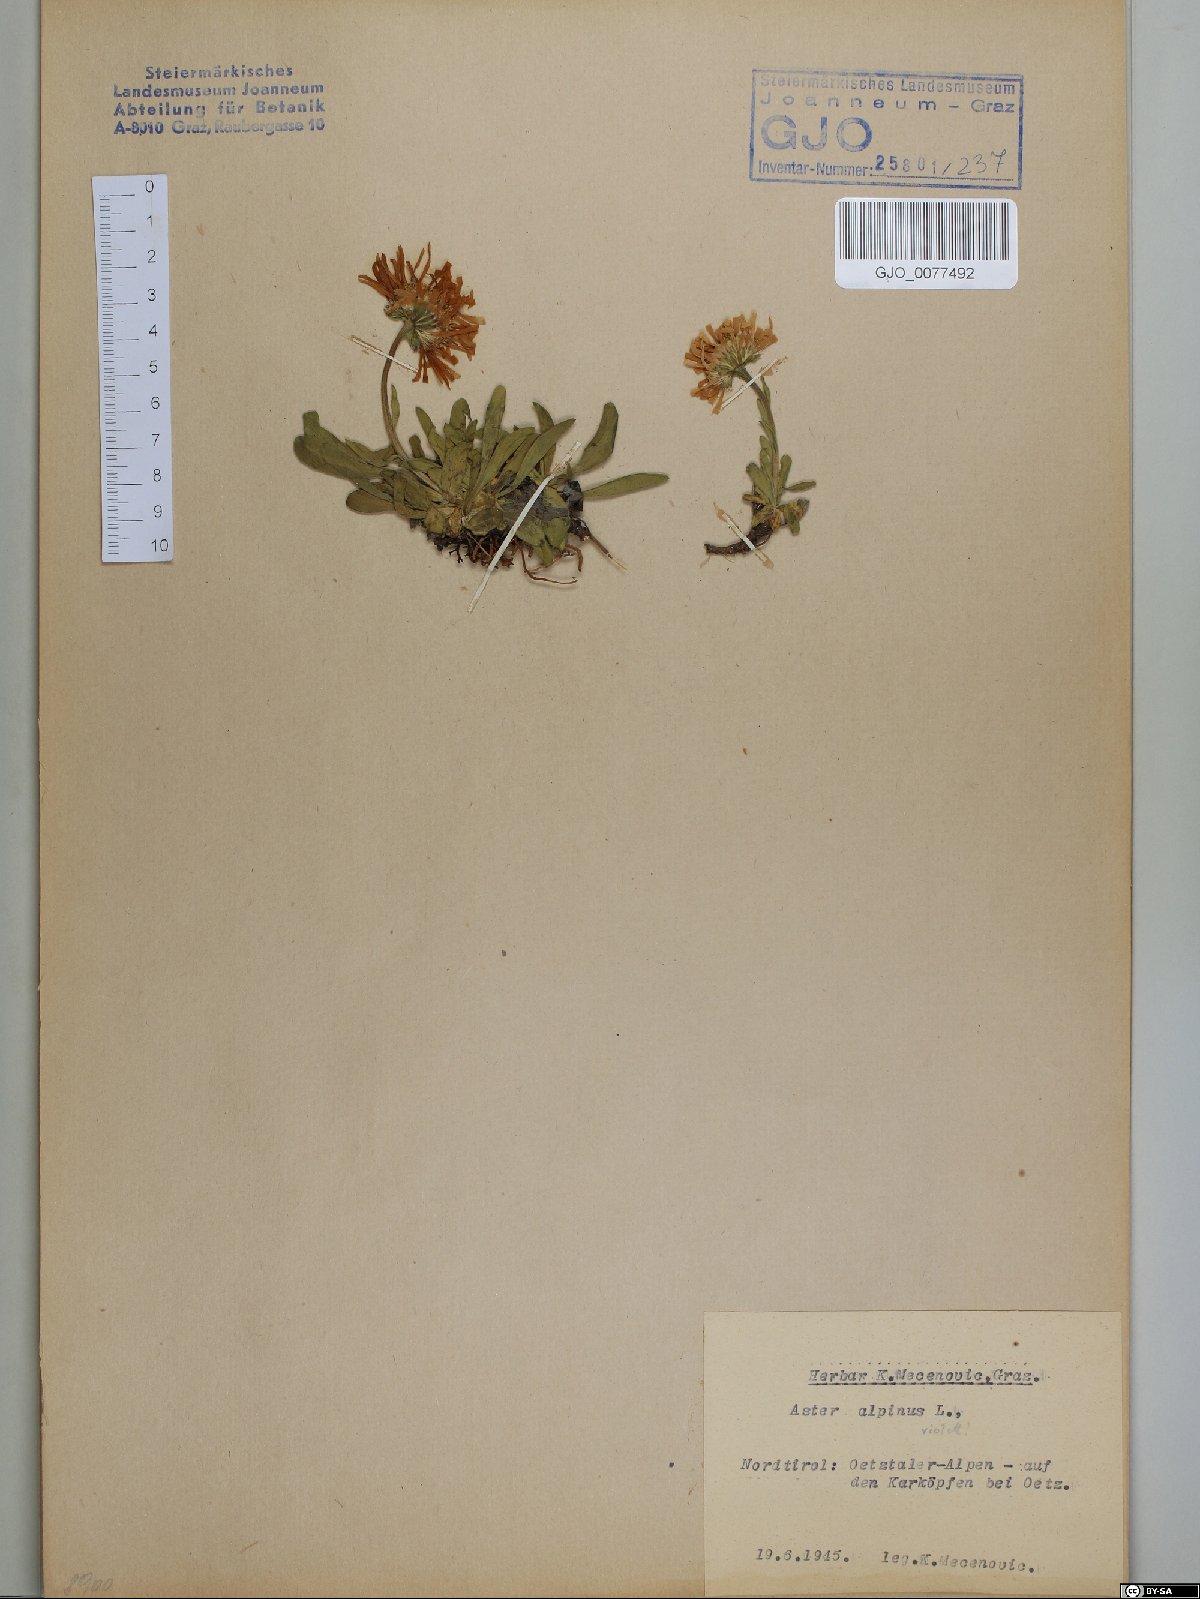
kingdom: Plantae
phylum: Tracheophyta
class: Magnoliopsida
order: Asterales
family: Asteraceae
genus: Aster
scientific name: Aster alpinus
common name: Alpine aster
